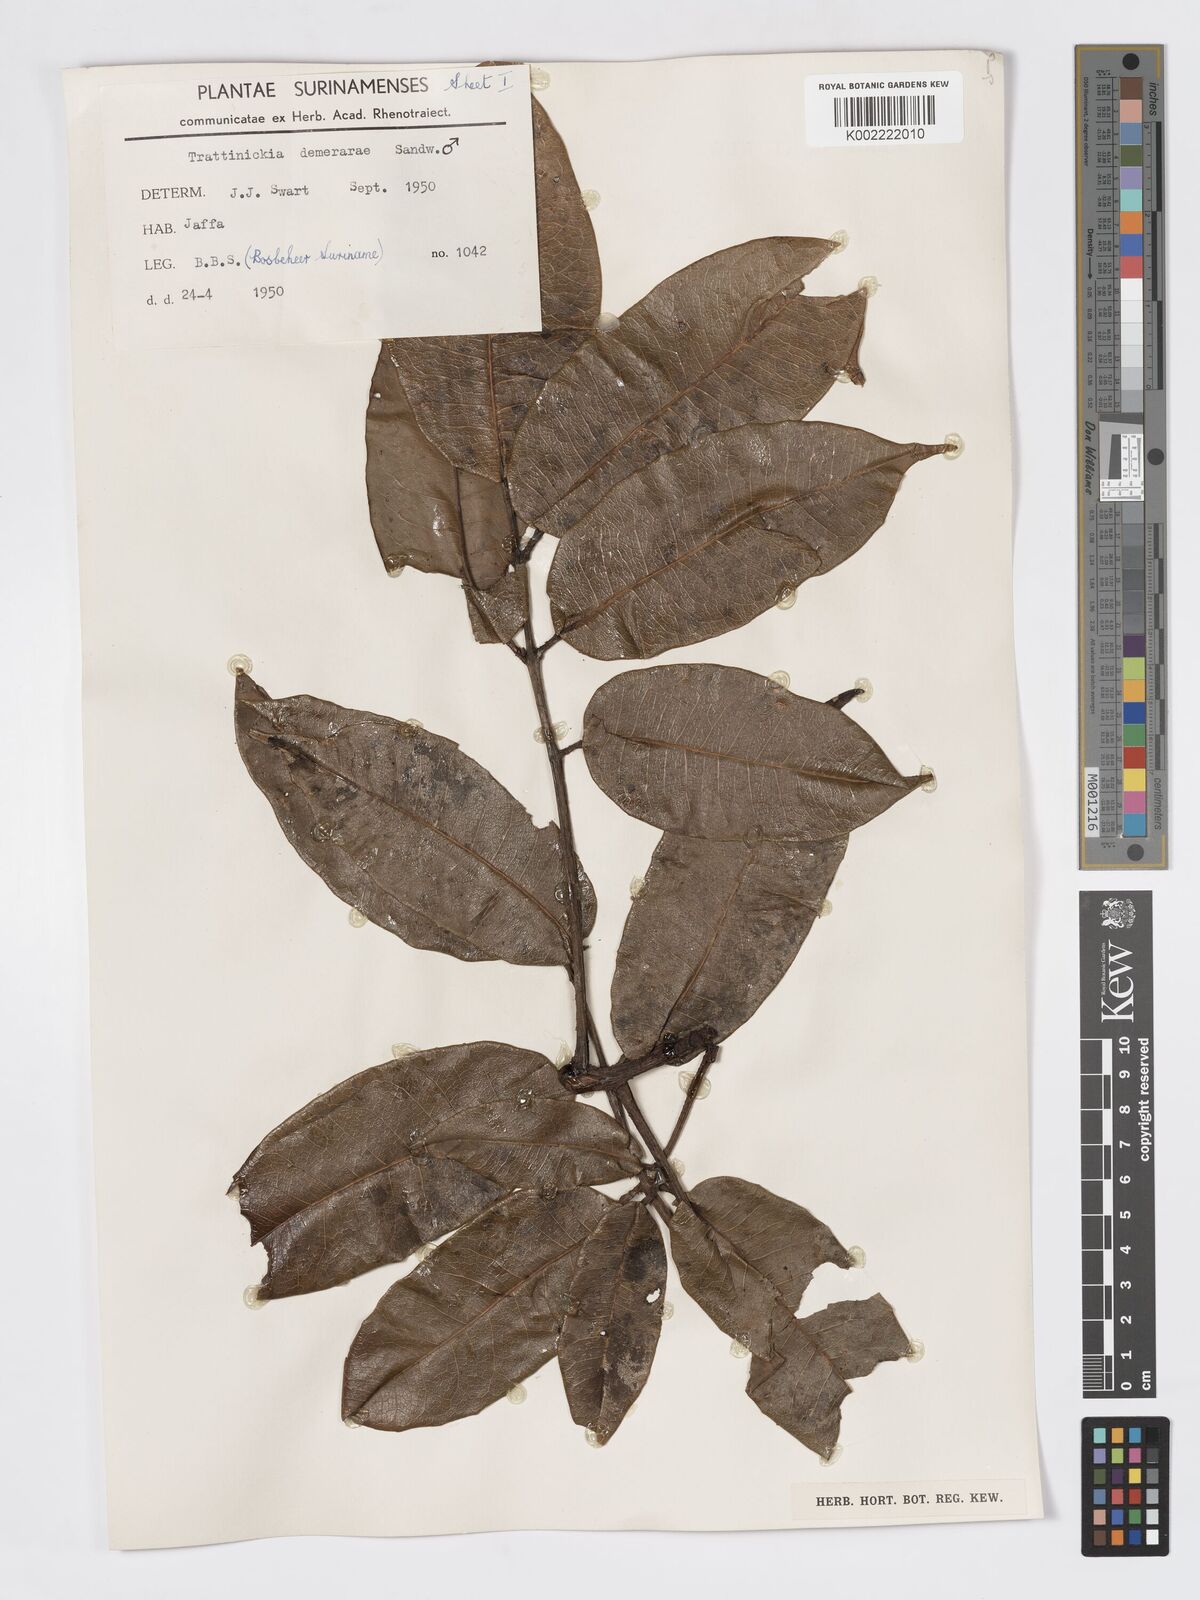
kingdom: Plantae
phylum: Tracheophyta
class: Magnoliopsida
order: Sapindales
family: Burseraceae
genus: Trattinnickia
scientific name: Trattinnickia demerarae
